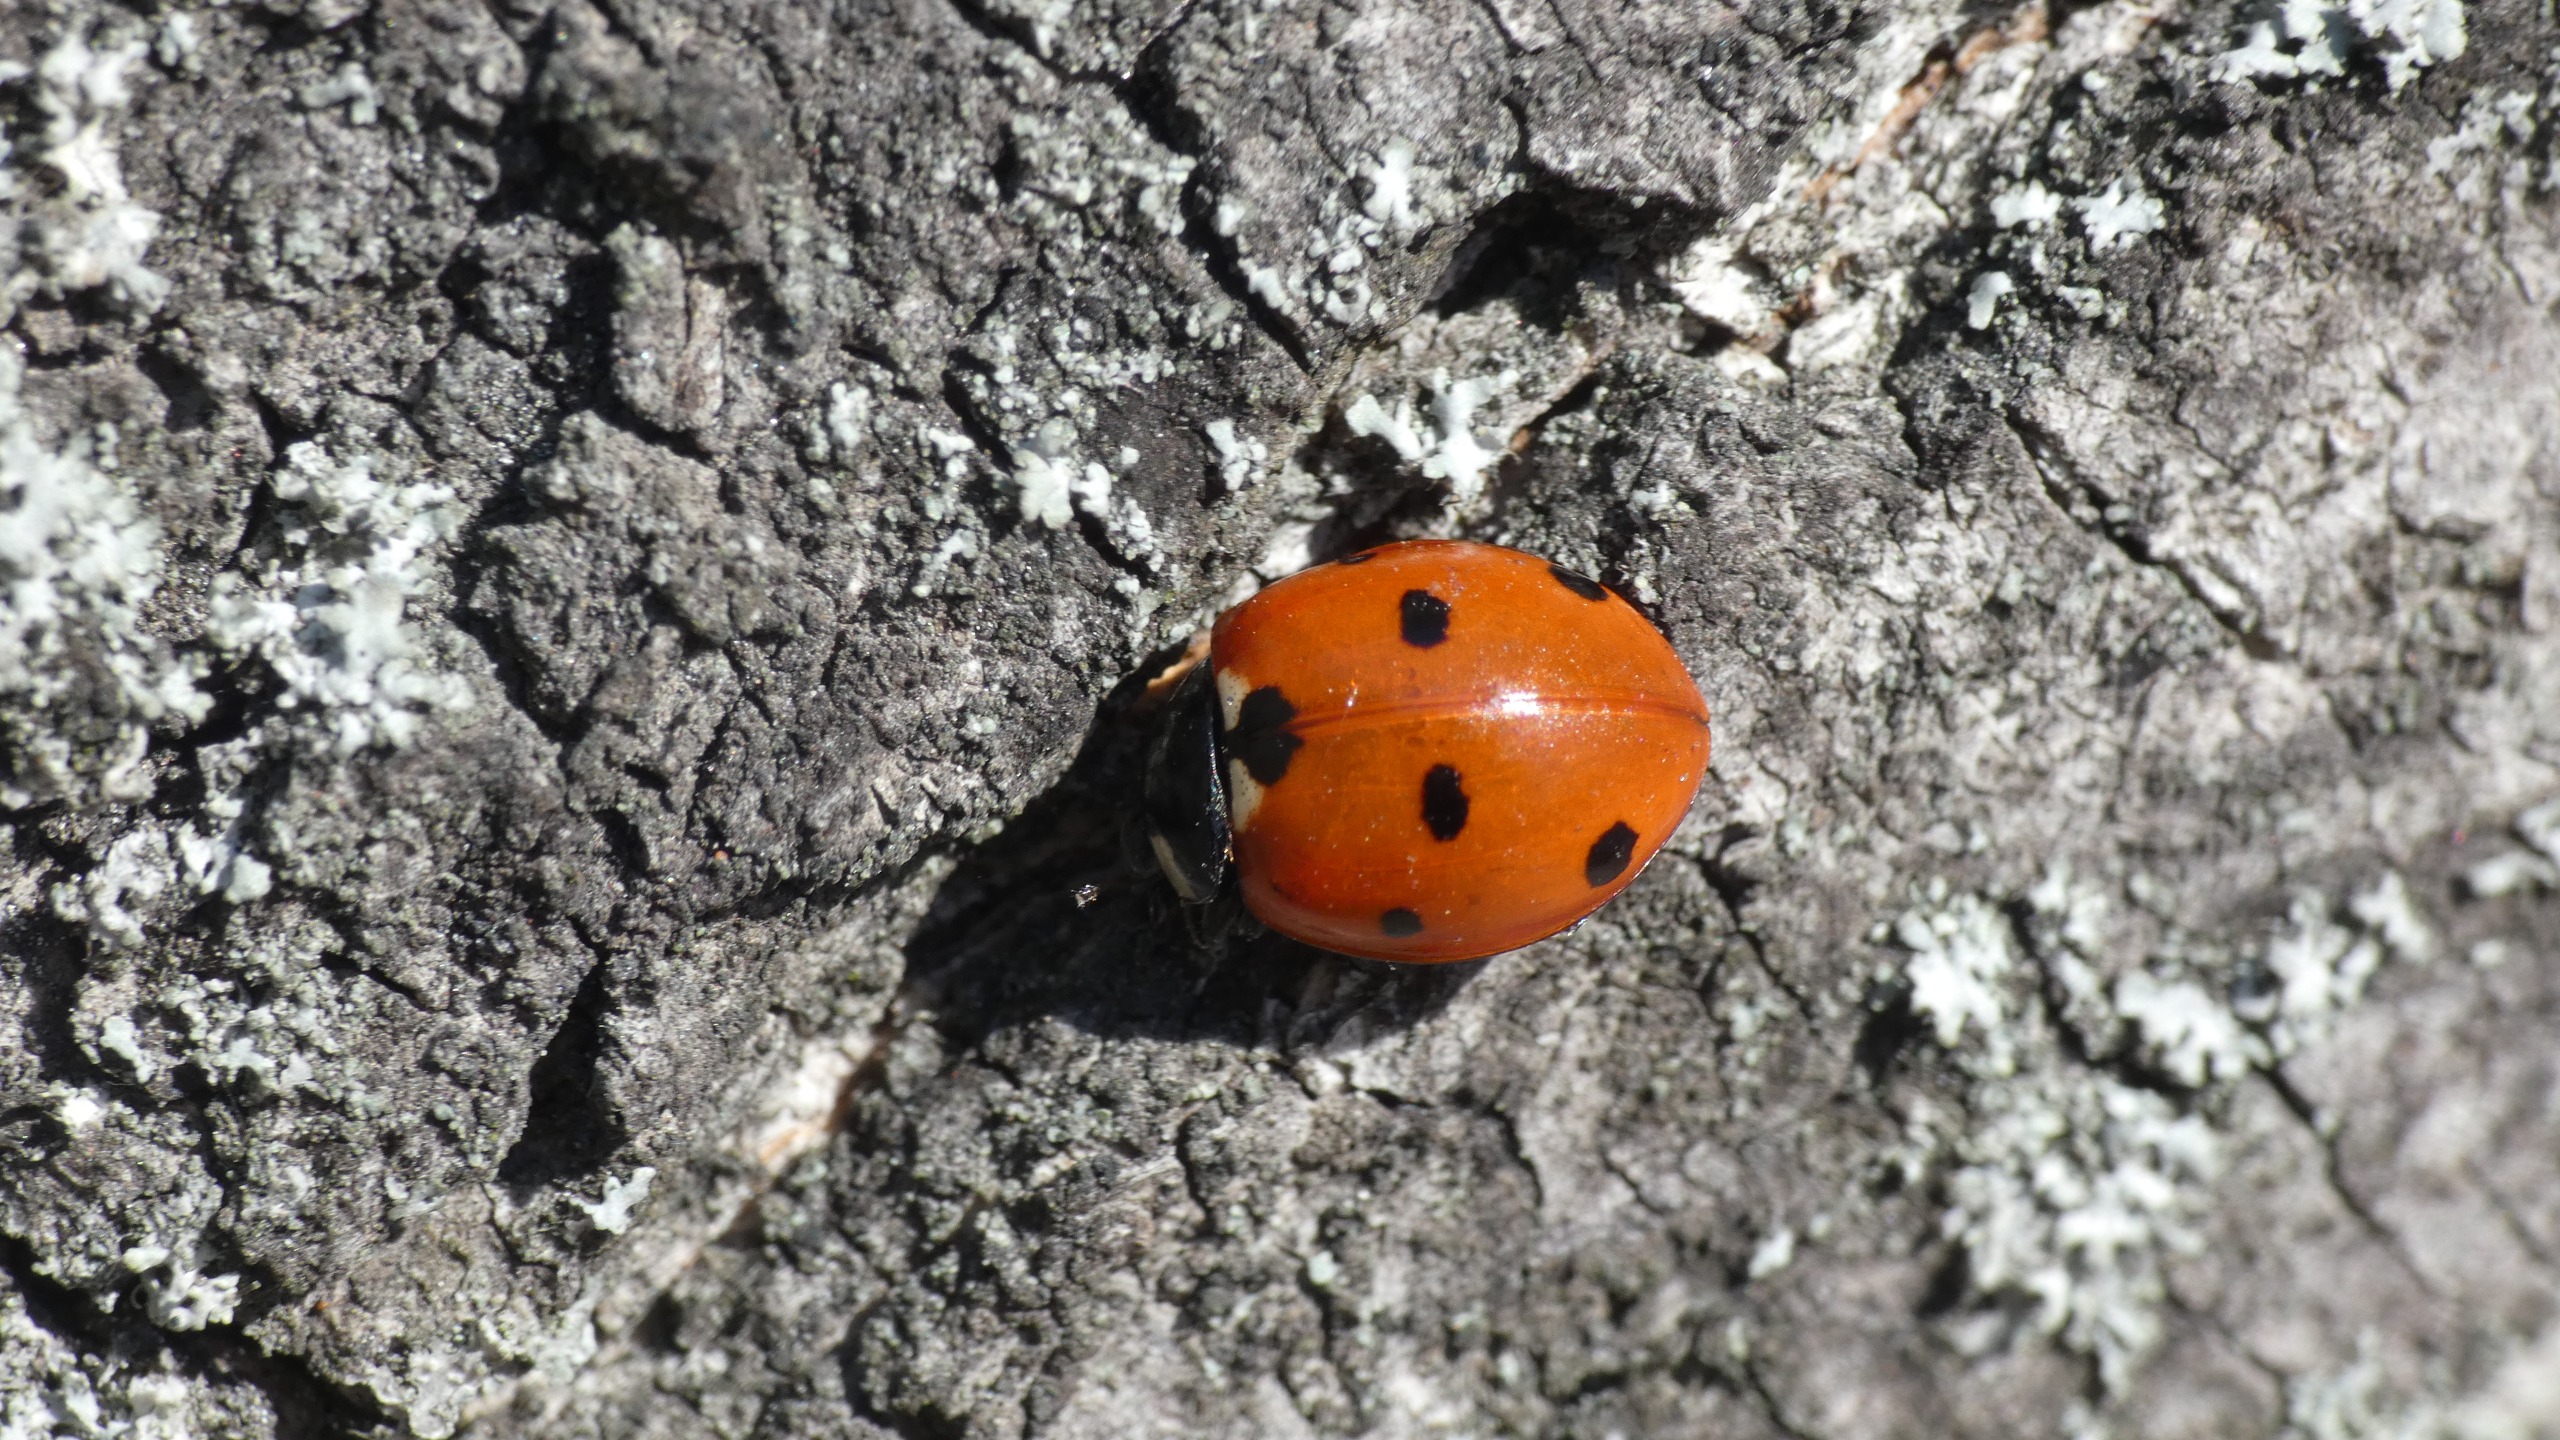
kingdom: Animalia
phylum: Arthropoda
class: Insecta
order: Coleoptera
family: Coccinellidae
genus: Coccinella
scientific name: Coccinella septempunctata
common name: Syvplettet mariehøne
